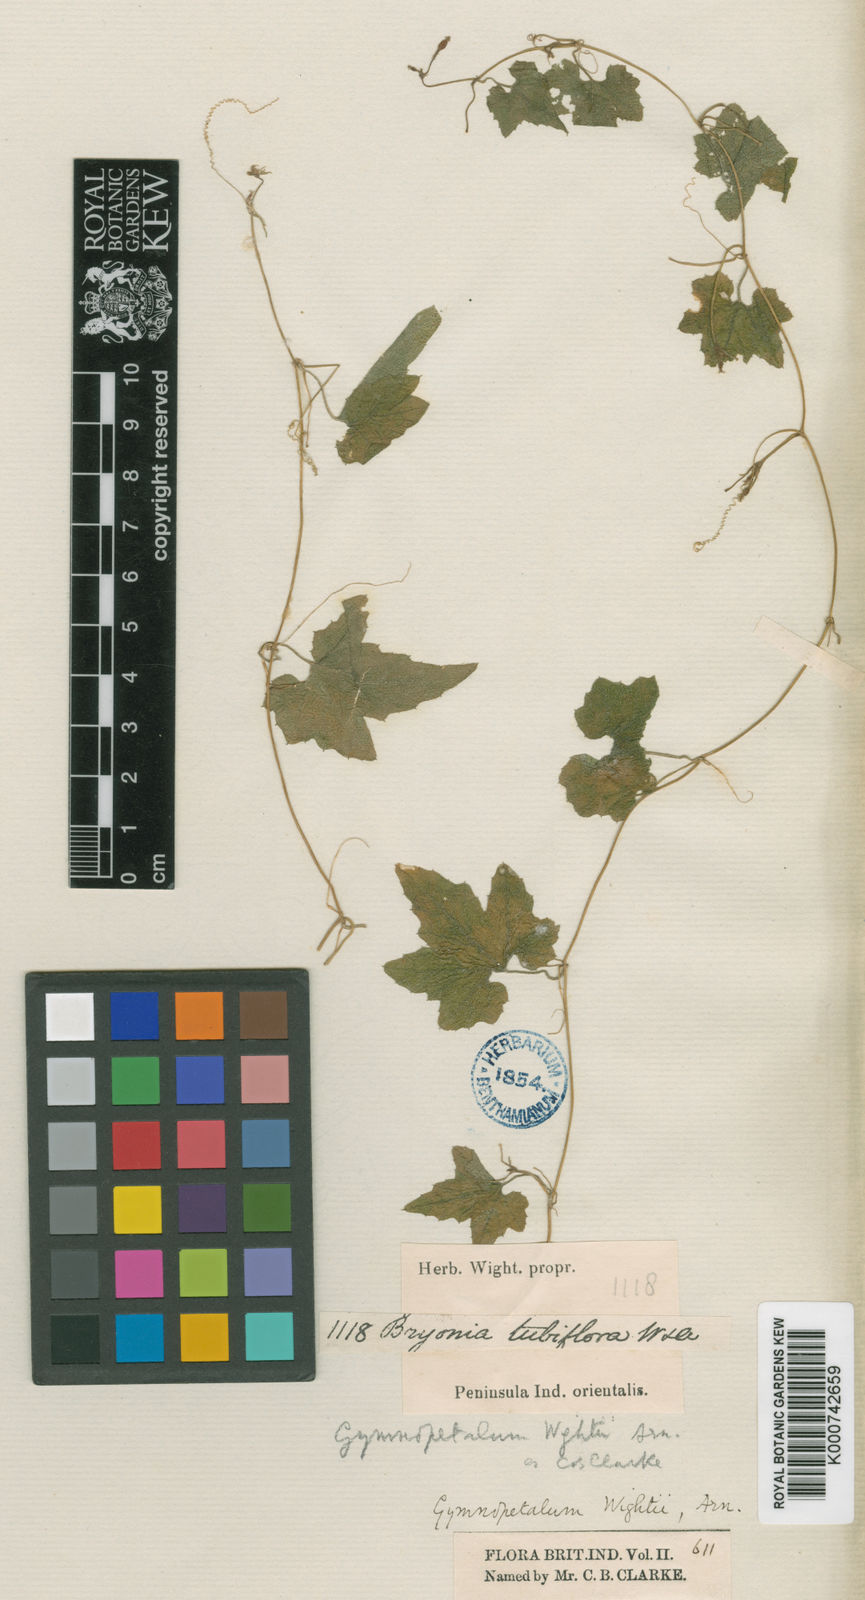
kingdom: Plantae
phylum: Tracheophyta
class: Magnoliopsida
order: Cucurbitales
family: Cucurbitaceae
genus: Trichosanthes
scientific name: Trichosanthes tubiflora
